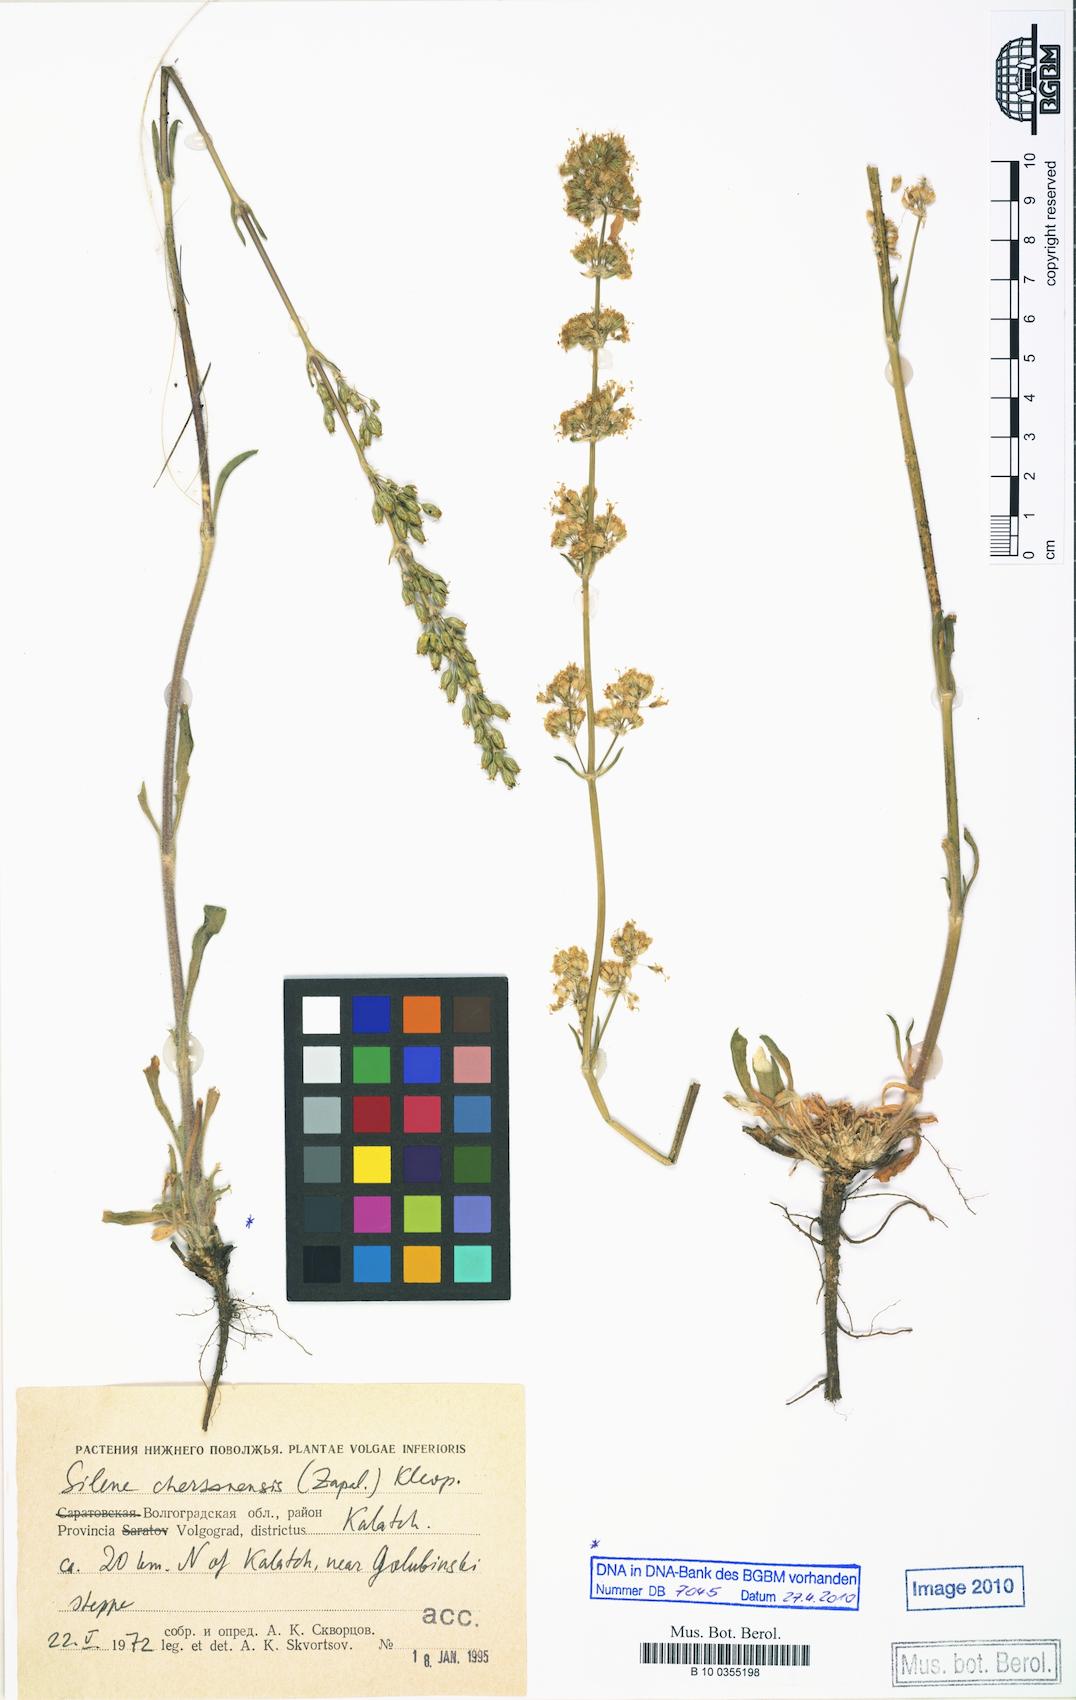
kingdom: Plantae
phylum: Tracheophyta
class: Magnoliopsida
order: Caryophyllales
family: Caryophyllaceae
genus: Silene
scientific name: Silene chersonensis
